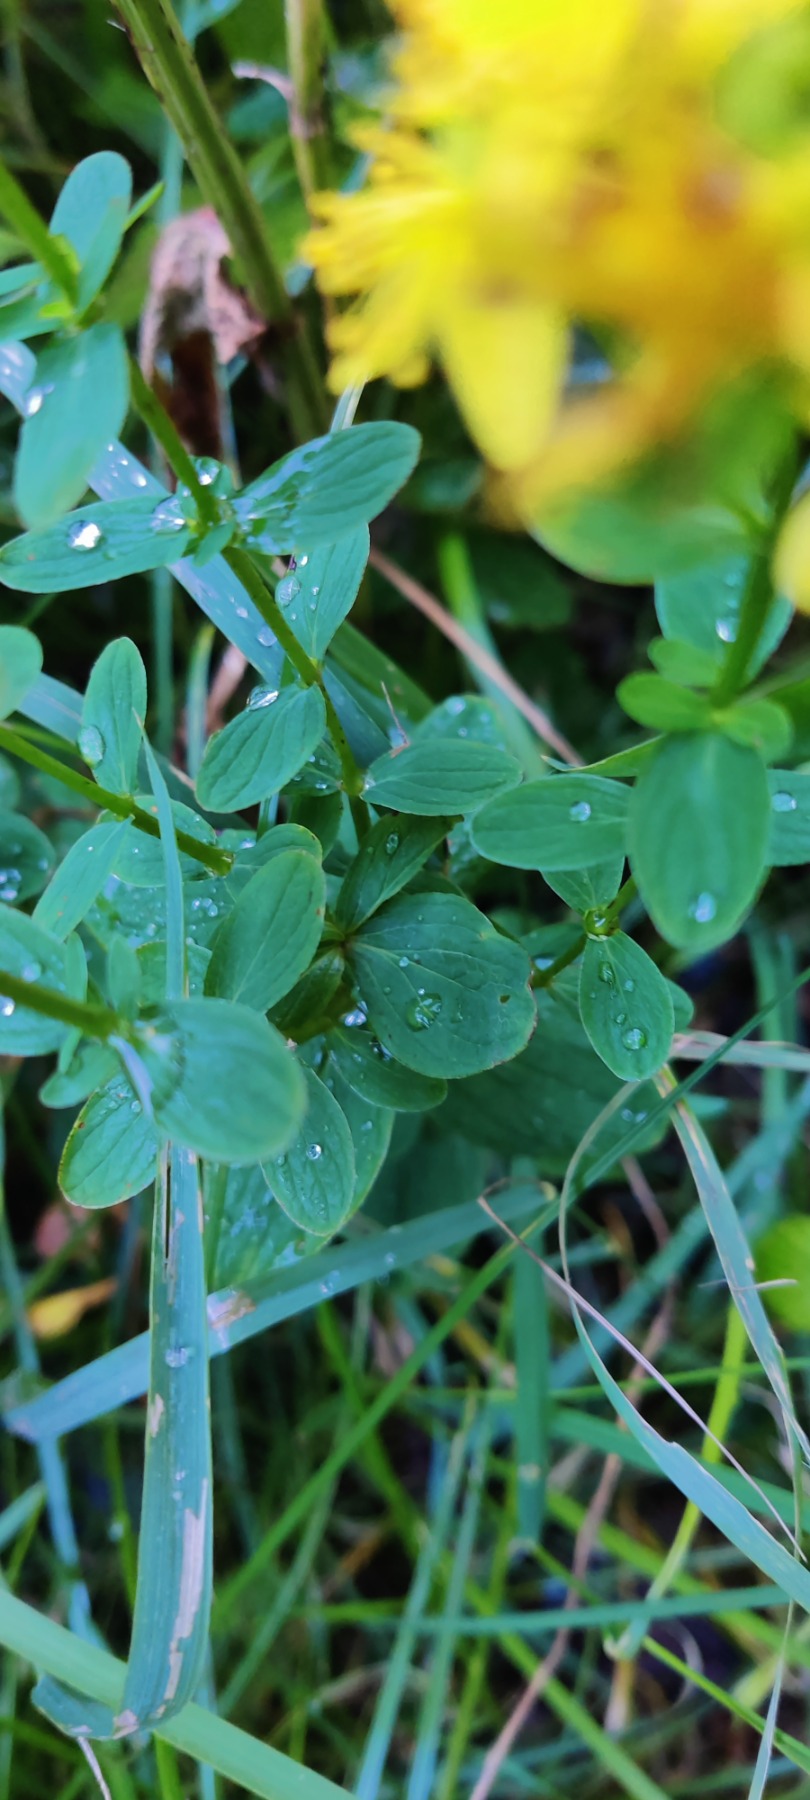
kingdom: Plantae
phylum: Tracheophyta
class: Magnoliopsida
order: Malpighiales
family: Hypericaceae
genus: Hypericum
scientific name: Hypericum maculatum
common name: Kantet perikon
